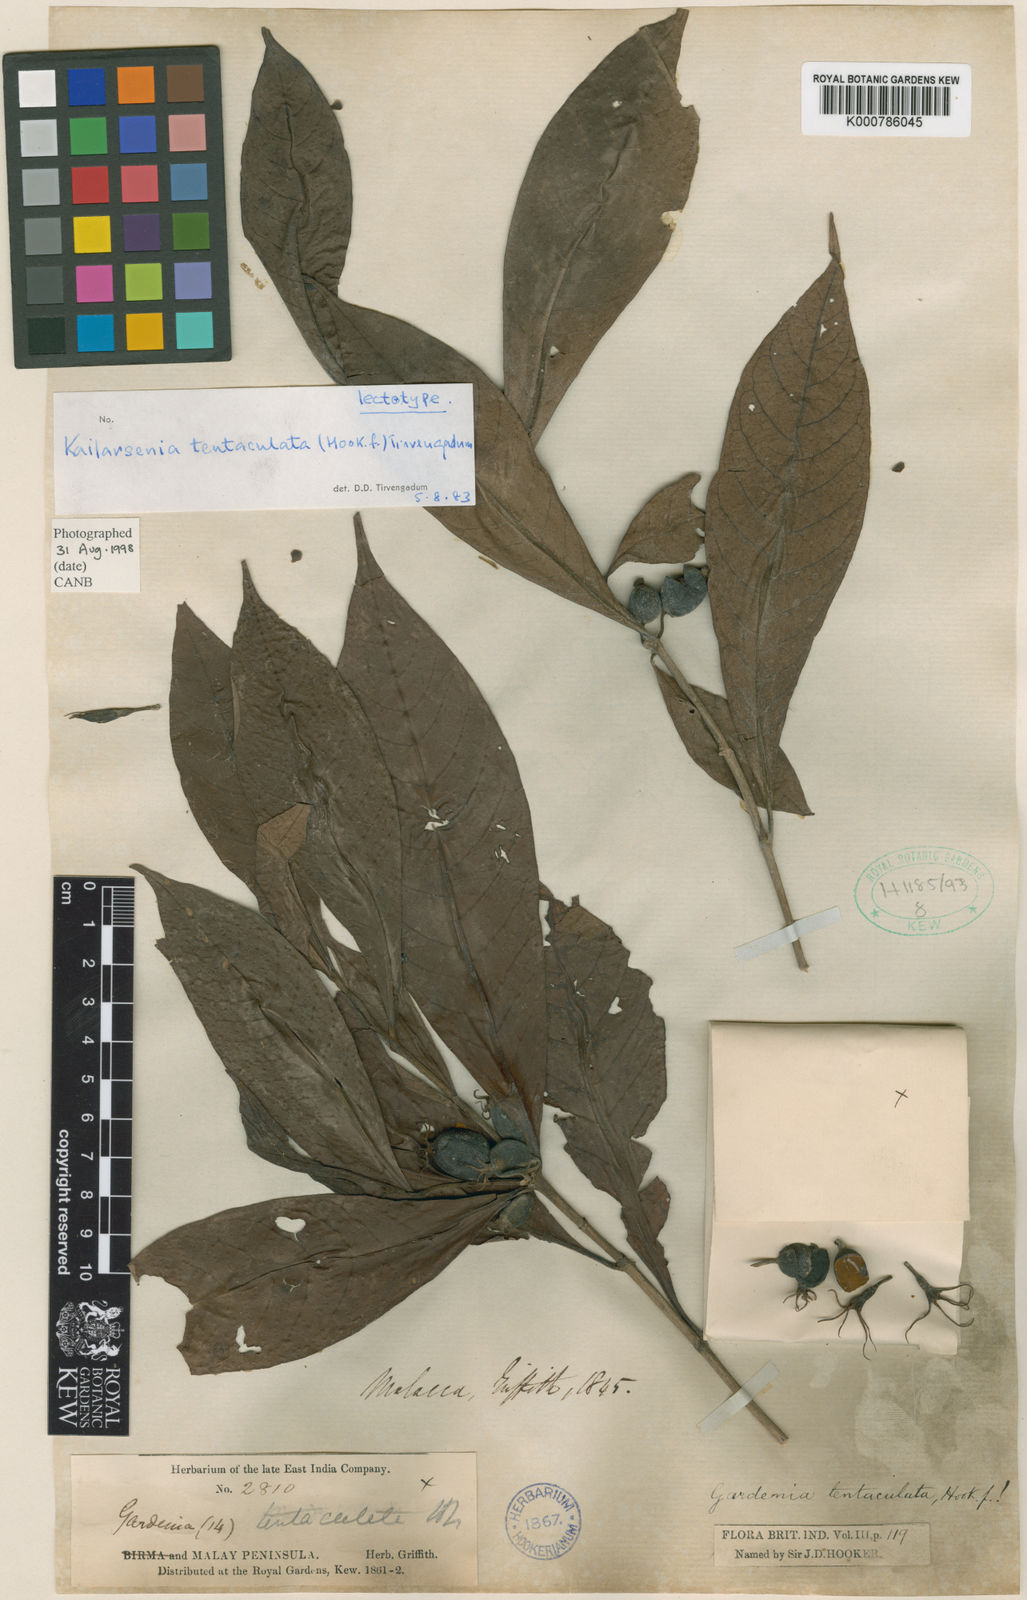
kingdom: Plantae
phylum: Tracheophyta
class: Magnoliopsida
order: Gentianales
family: Rubiaceae
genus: Kailarsenia
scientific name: Kailarsenia tentaculata
